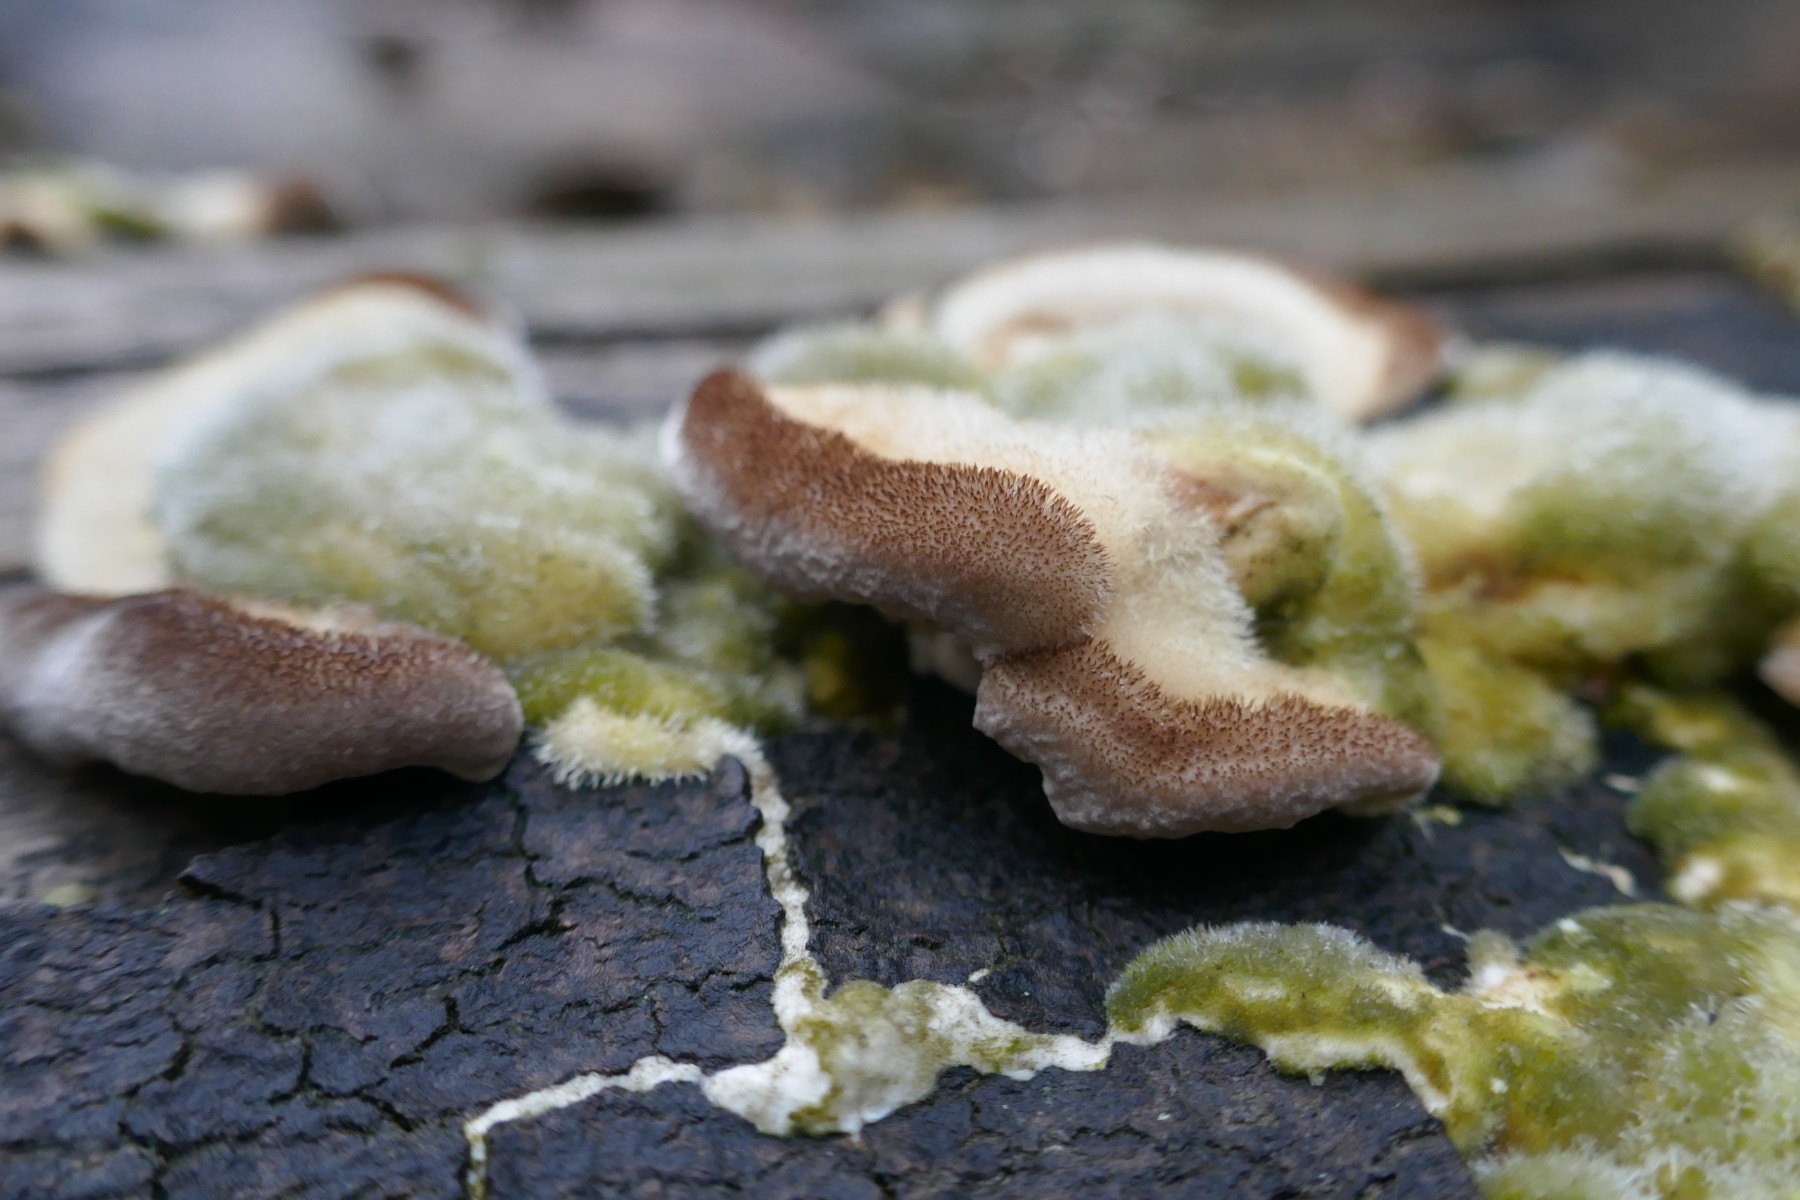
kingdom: Fungi
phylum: Basidiomycota
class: Agaricomycetes
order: Polyporales
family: Polyporaceae
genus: Trametes
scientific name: Trametes hirsuta
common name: håret læderporesvamp
